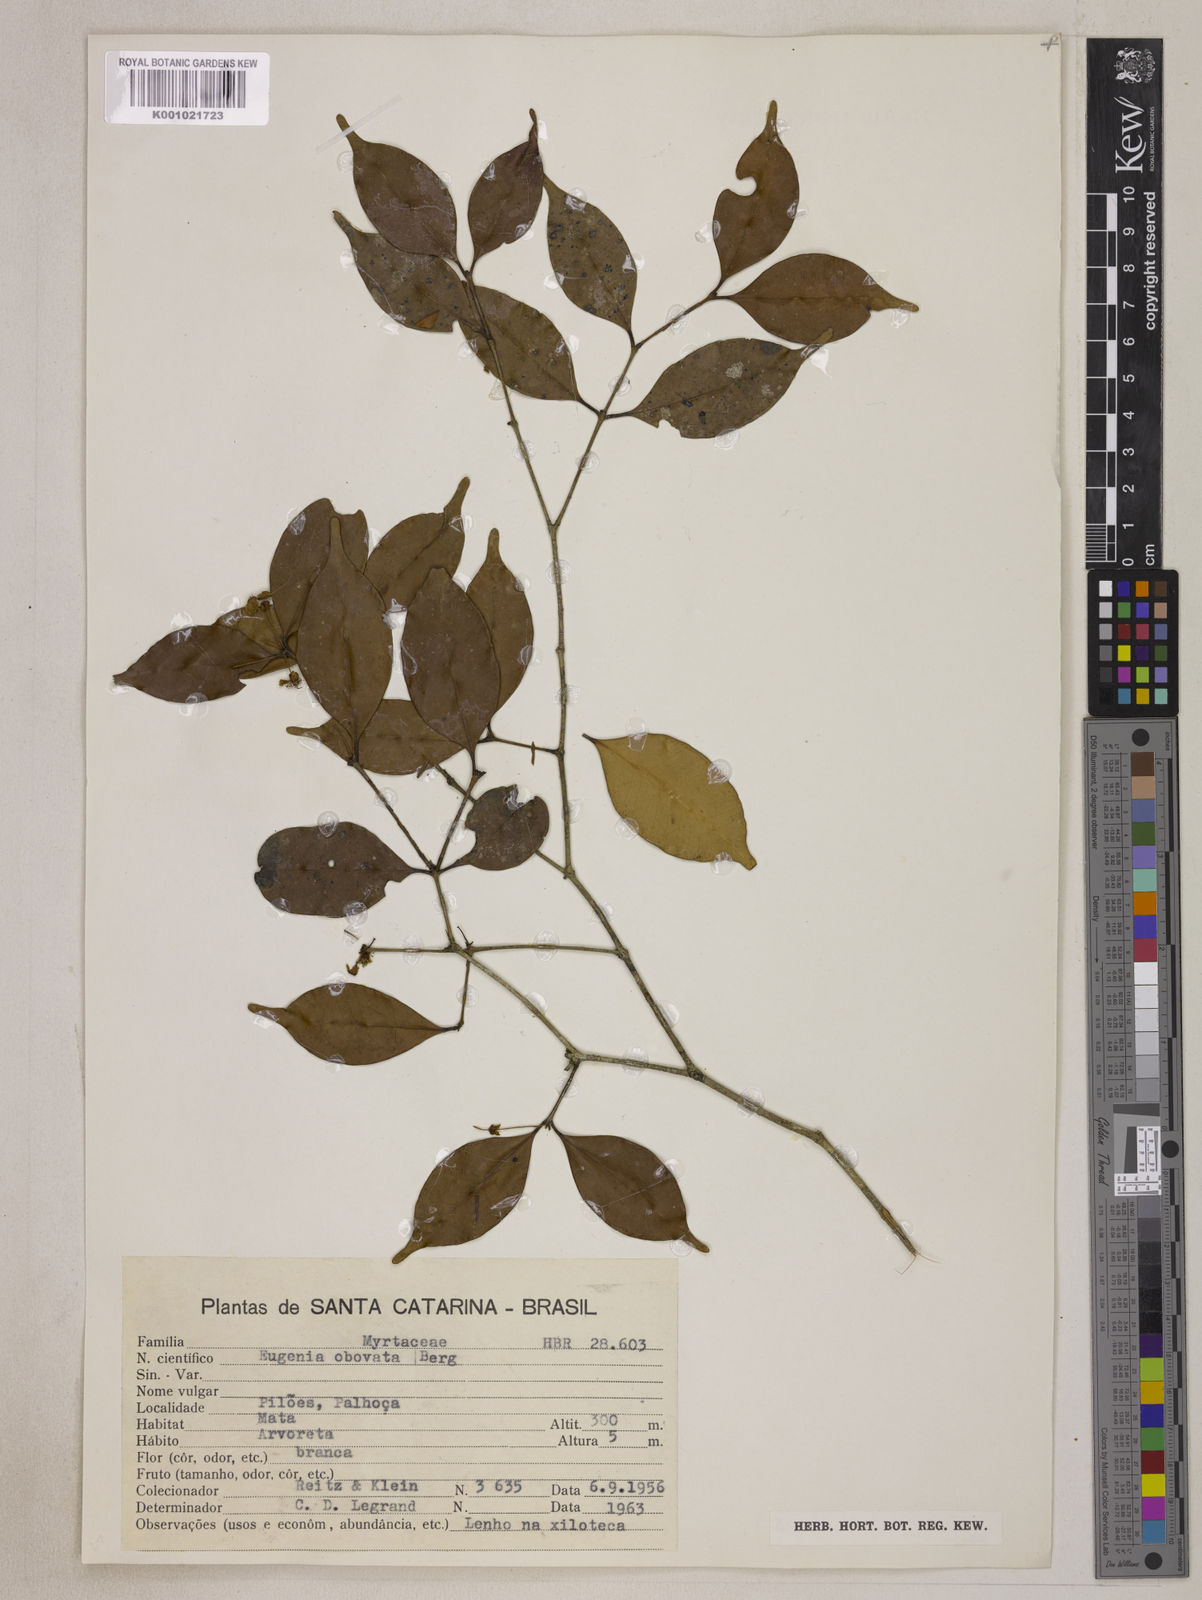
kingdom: Plantae
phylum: Tracheophyta
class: Magnoliopsida
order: Myrtales
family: Myrtaceae
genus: Eugenia
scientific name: Eugenia excelsa
